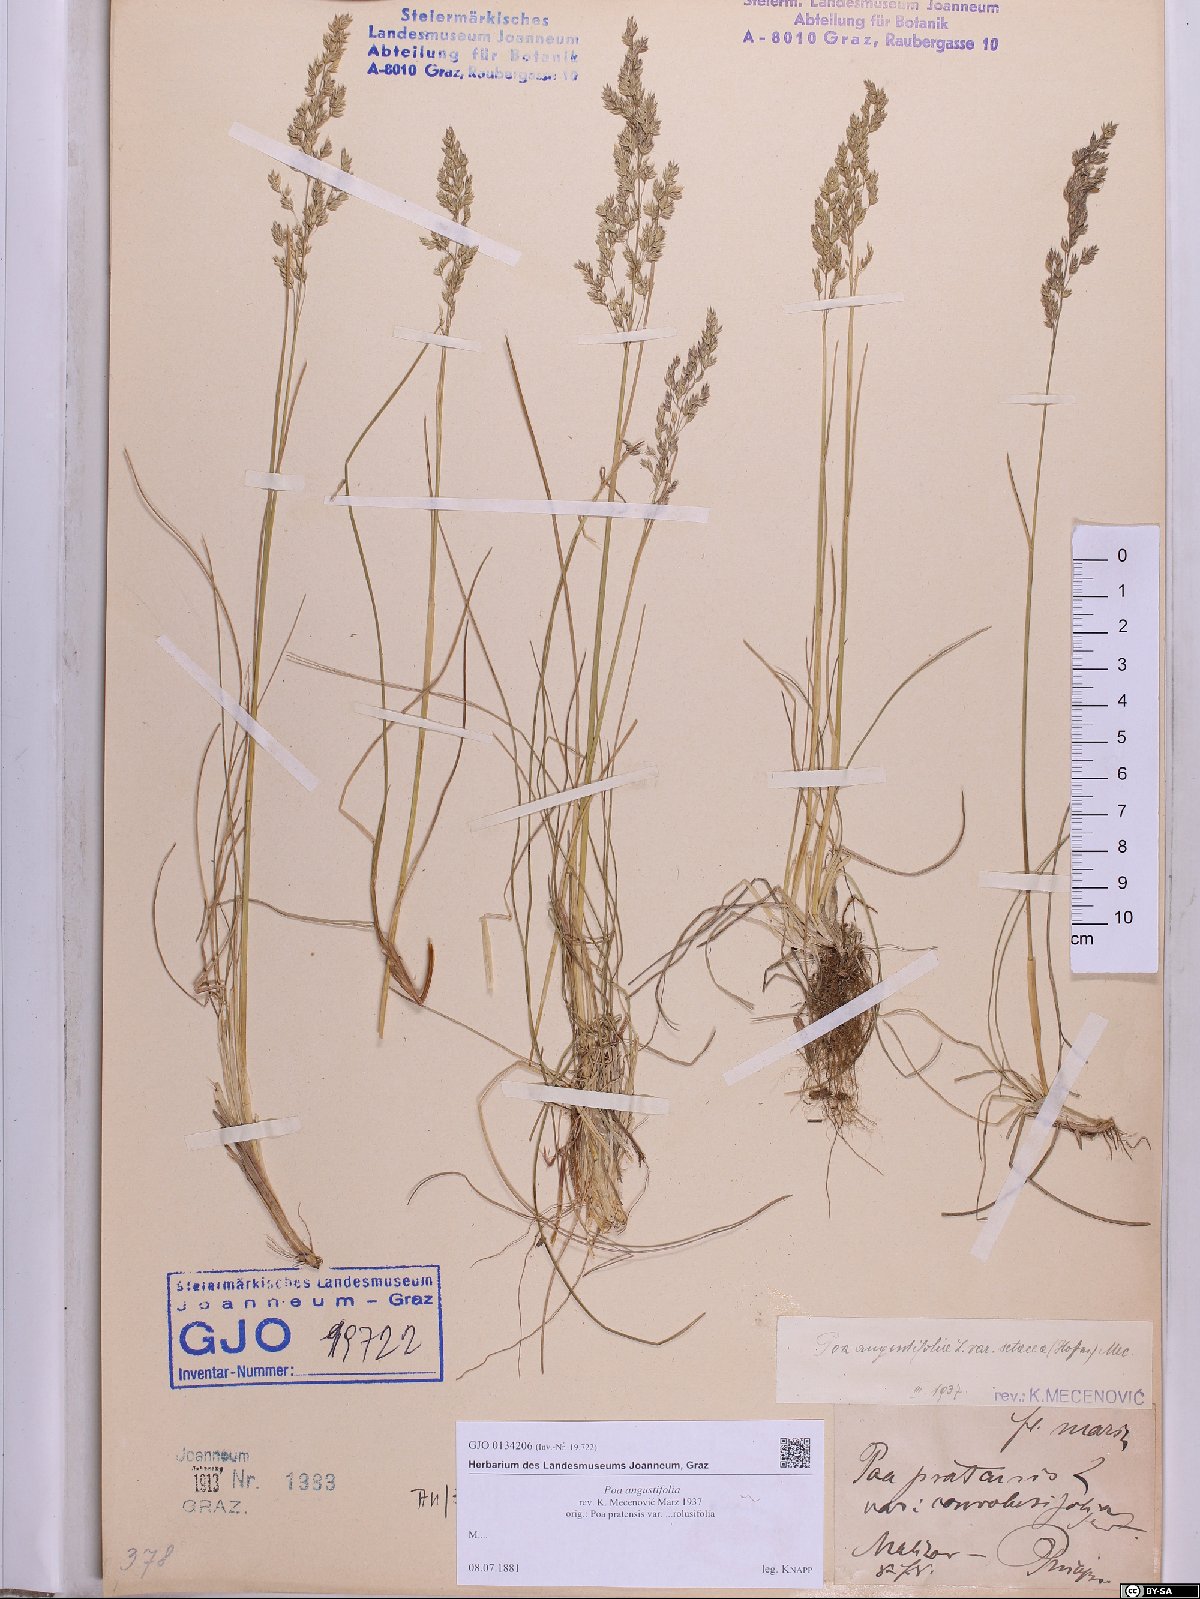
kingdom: Plantae
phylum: Tracheophyta
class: Liliopsida
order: Poales
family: Poaceae
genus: Poa
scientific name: Poa angustifolia
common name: Narrow-leaved meadow-grass
